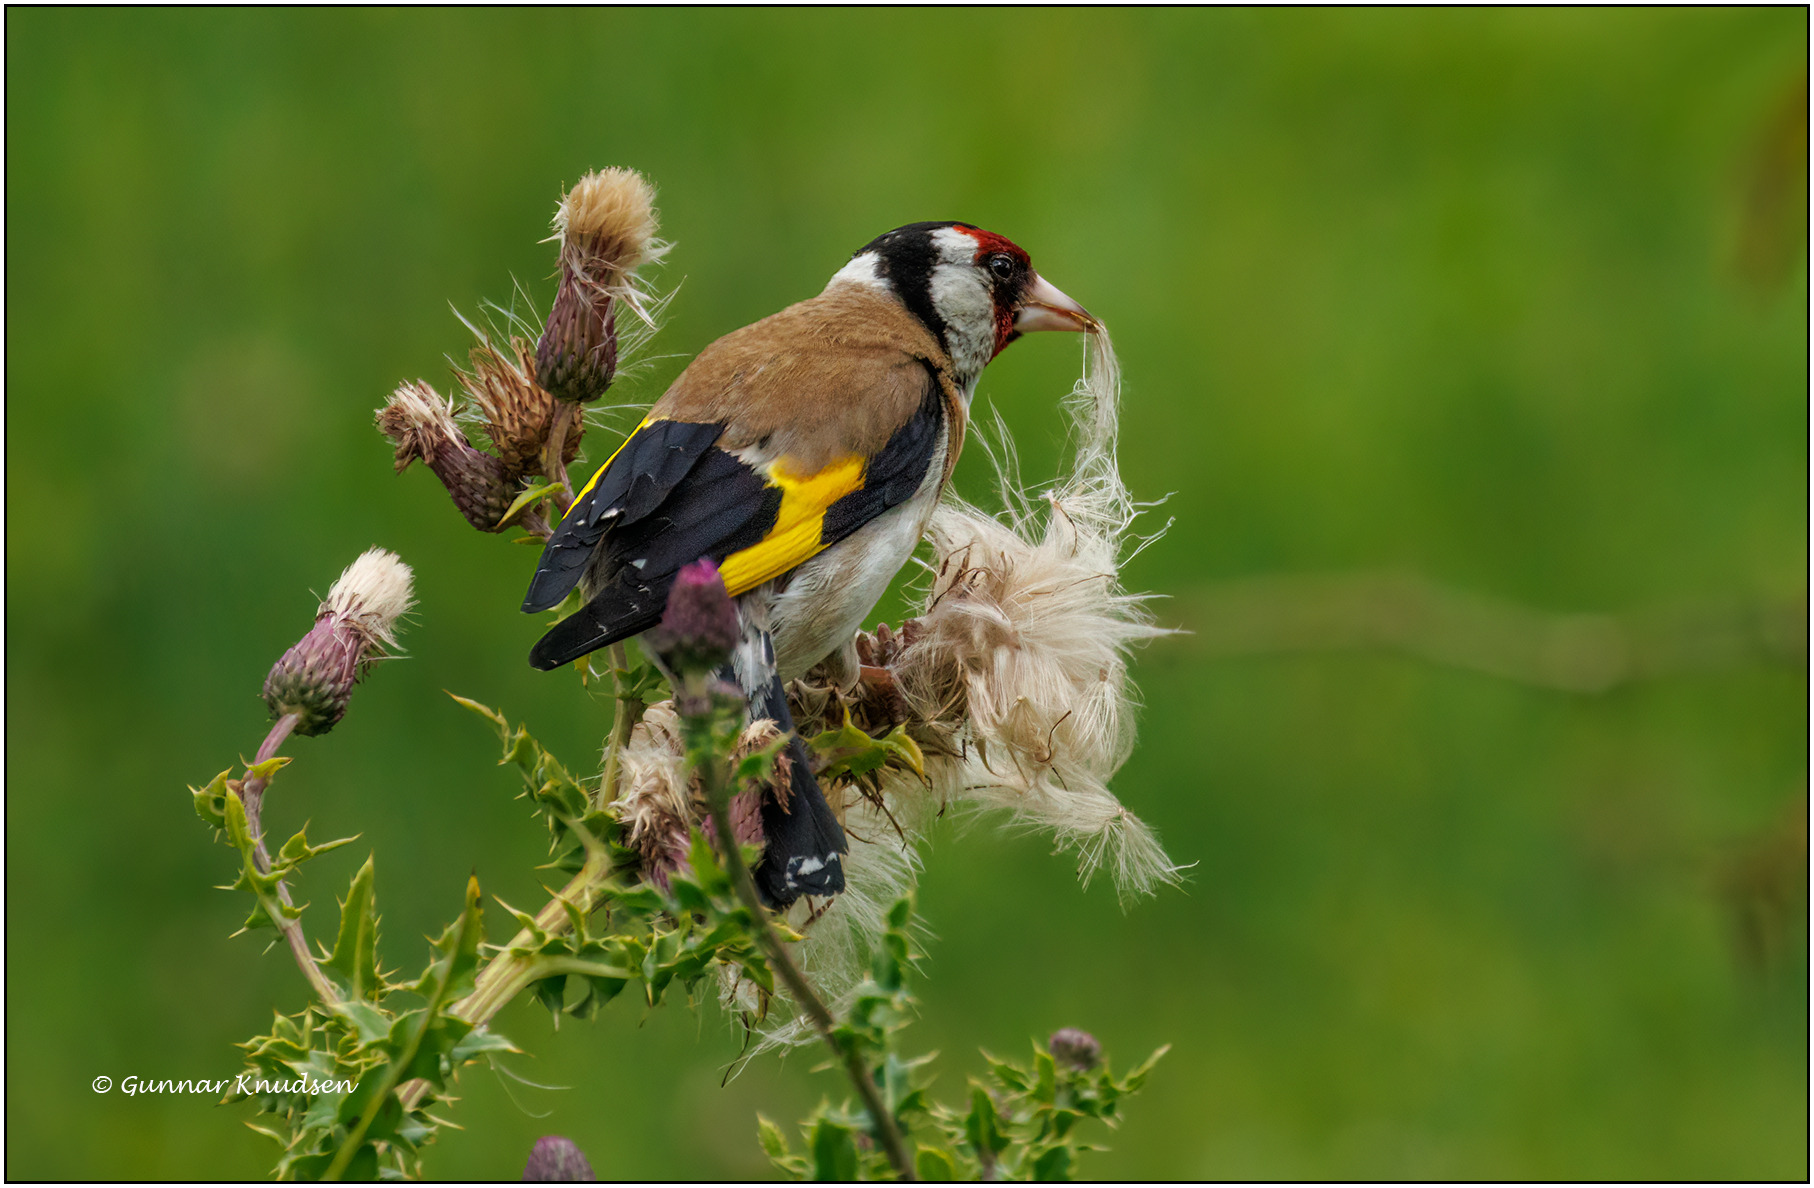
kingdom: Animalia
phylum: Chordata
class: Aves
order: Passeriformes
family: Fringillidae
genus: Carduelis
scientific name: Carduelis carduelis
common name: Stillits
